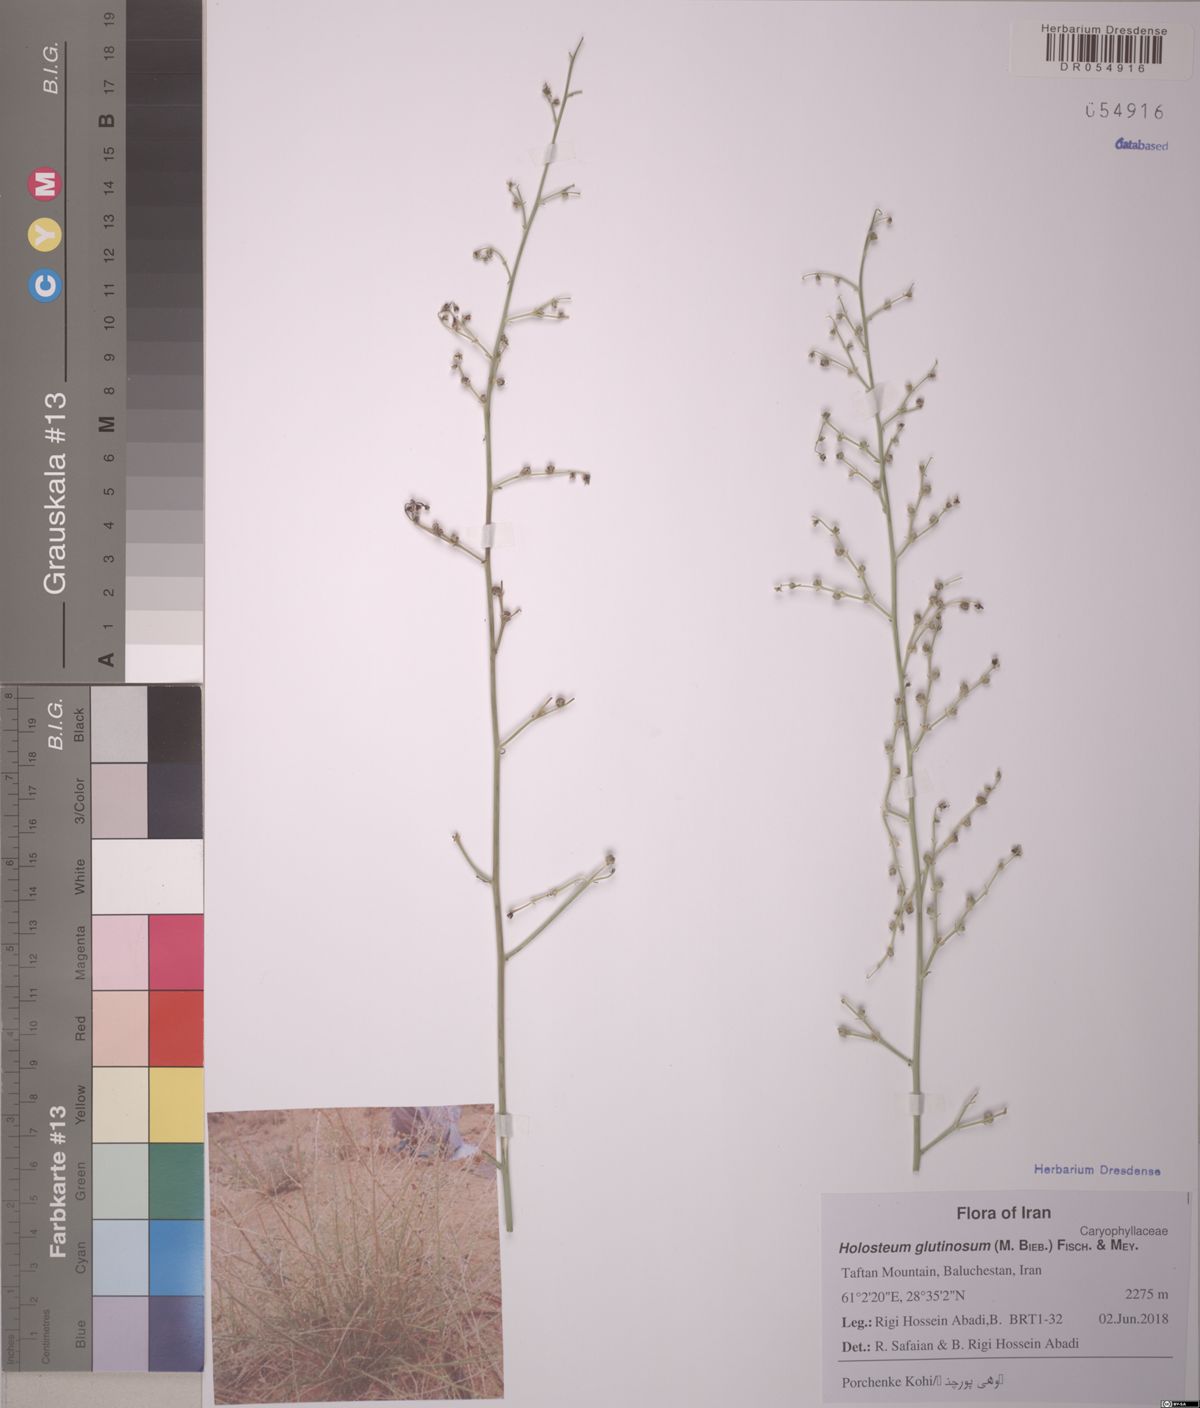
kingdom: Plantae
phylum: Tracheophyta
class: Magnoliopsida
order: Caryophyllales
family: Caryophyllaceae
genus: Holosteum
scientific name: Holosteum glutinosum
